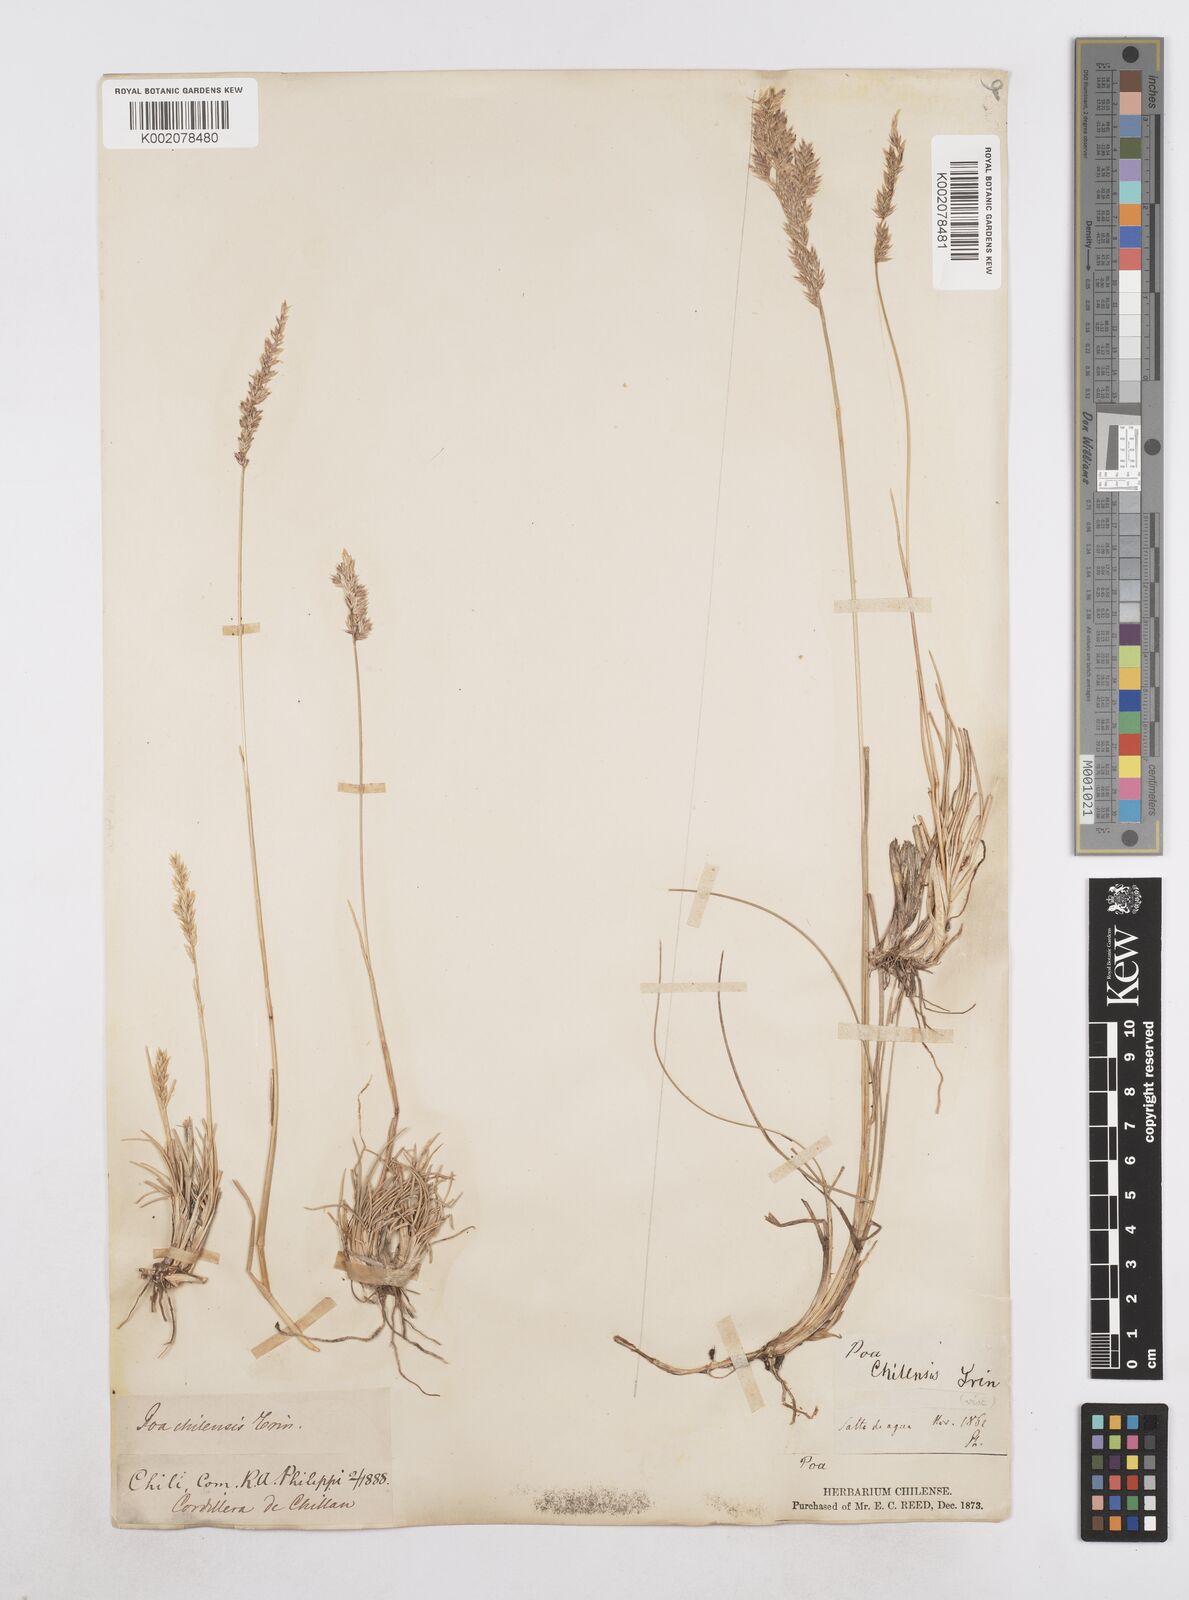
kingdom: Plantae
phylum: Tracheophyta
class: Liliopsida
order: Poales
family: Poaceae
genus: Poa
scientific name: Poa denudata
